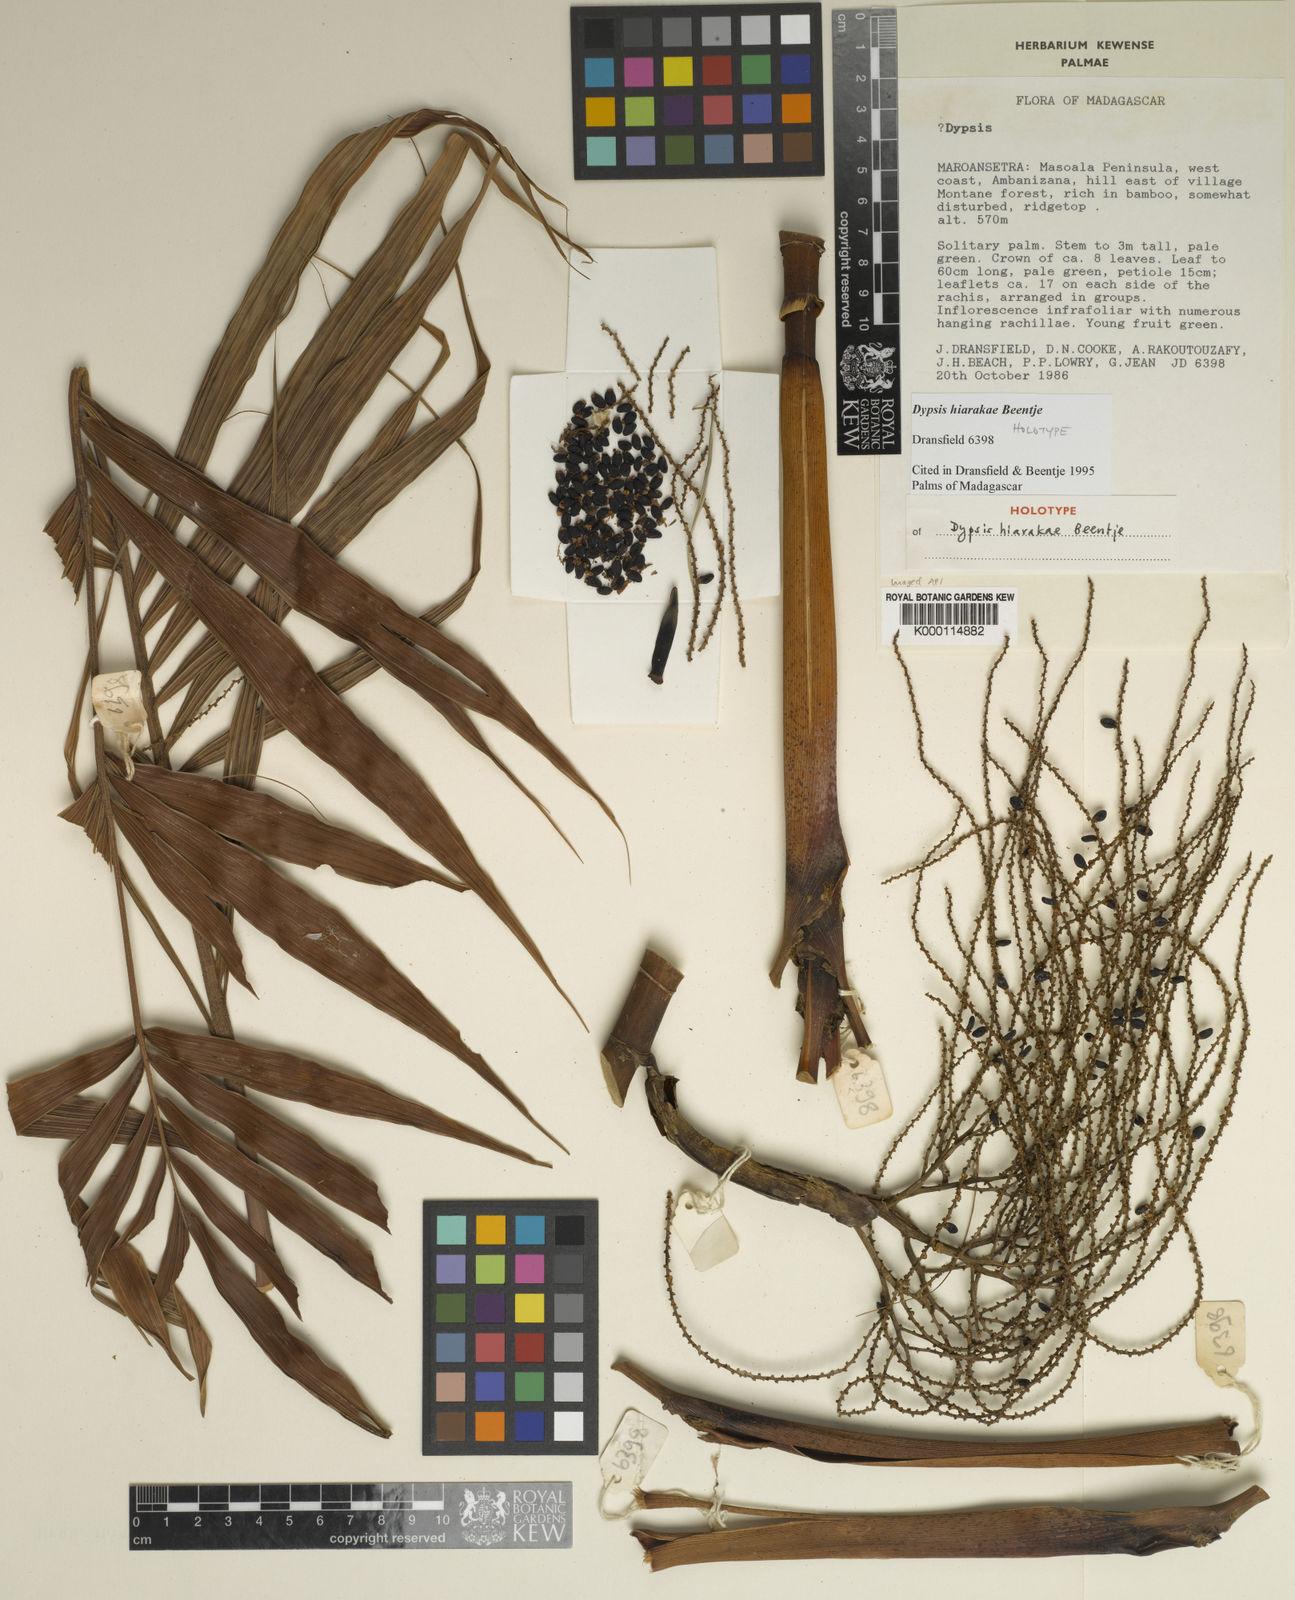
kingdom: Plantae
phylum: Tracheophyta
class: Liliopsida
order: Arecales
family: Arecaceae
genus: Dypsis
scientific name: Dypsis hiarakae
